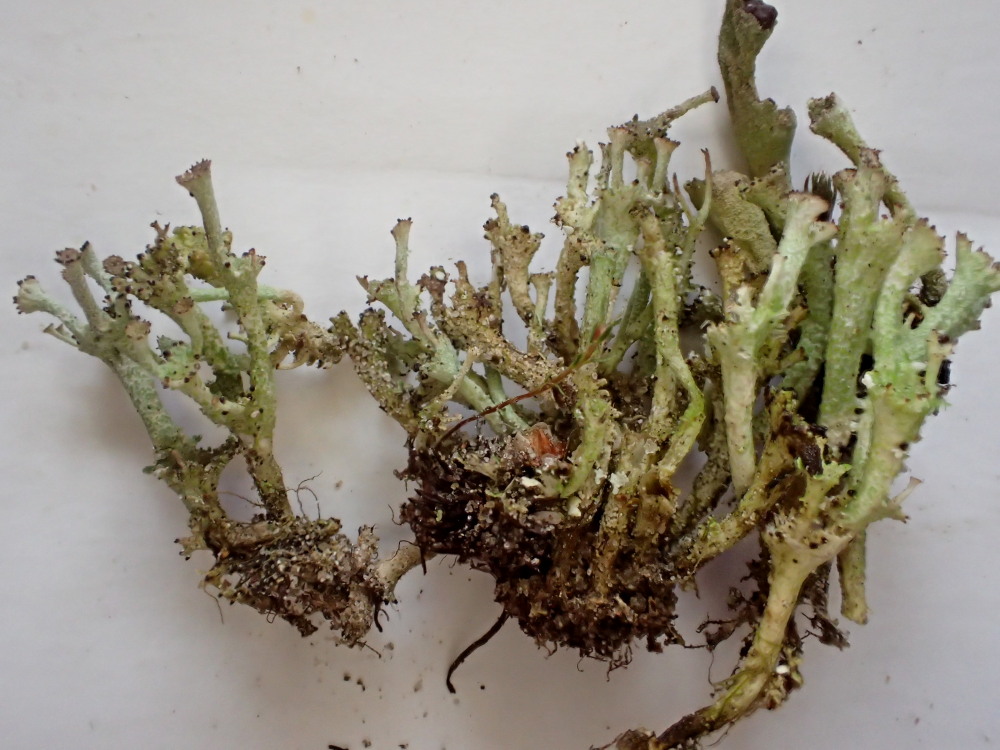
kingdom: Fungi
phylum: Ascomycota
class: Lecanoromycetes
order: Lecanorales
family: Cladoniaceae
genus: Cladonia
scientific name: Cladonia ramulosa
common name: kliddet bægerlav
